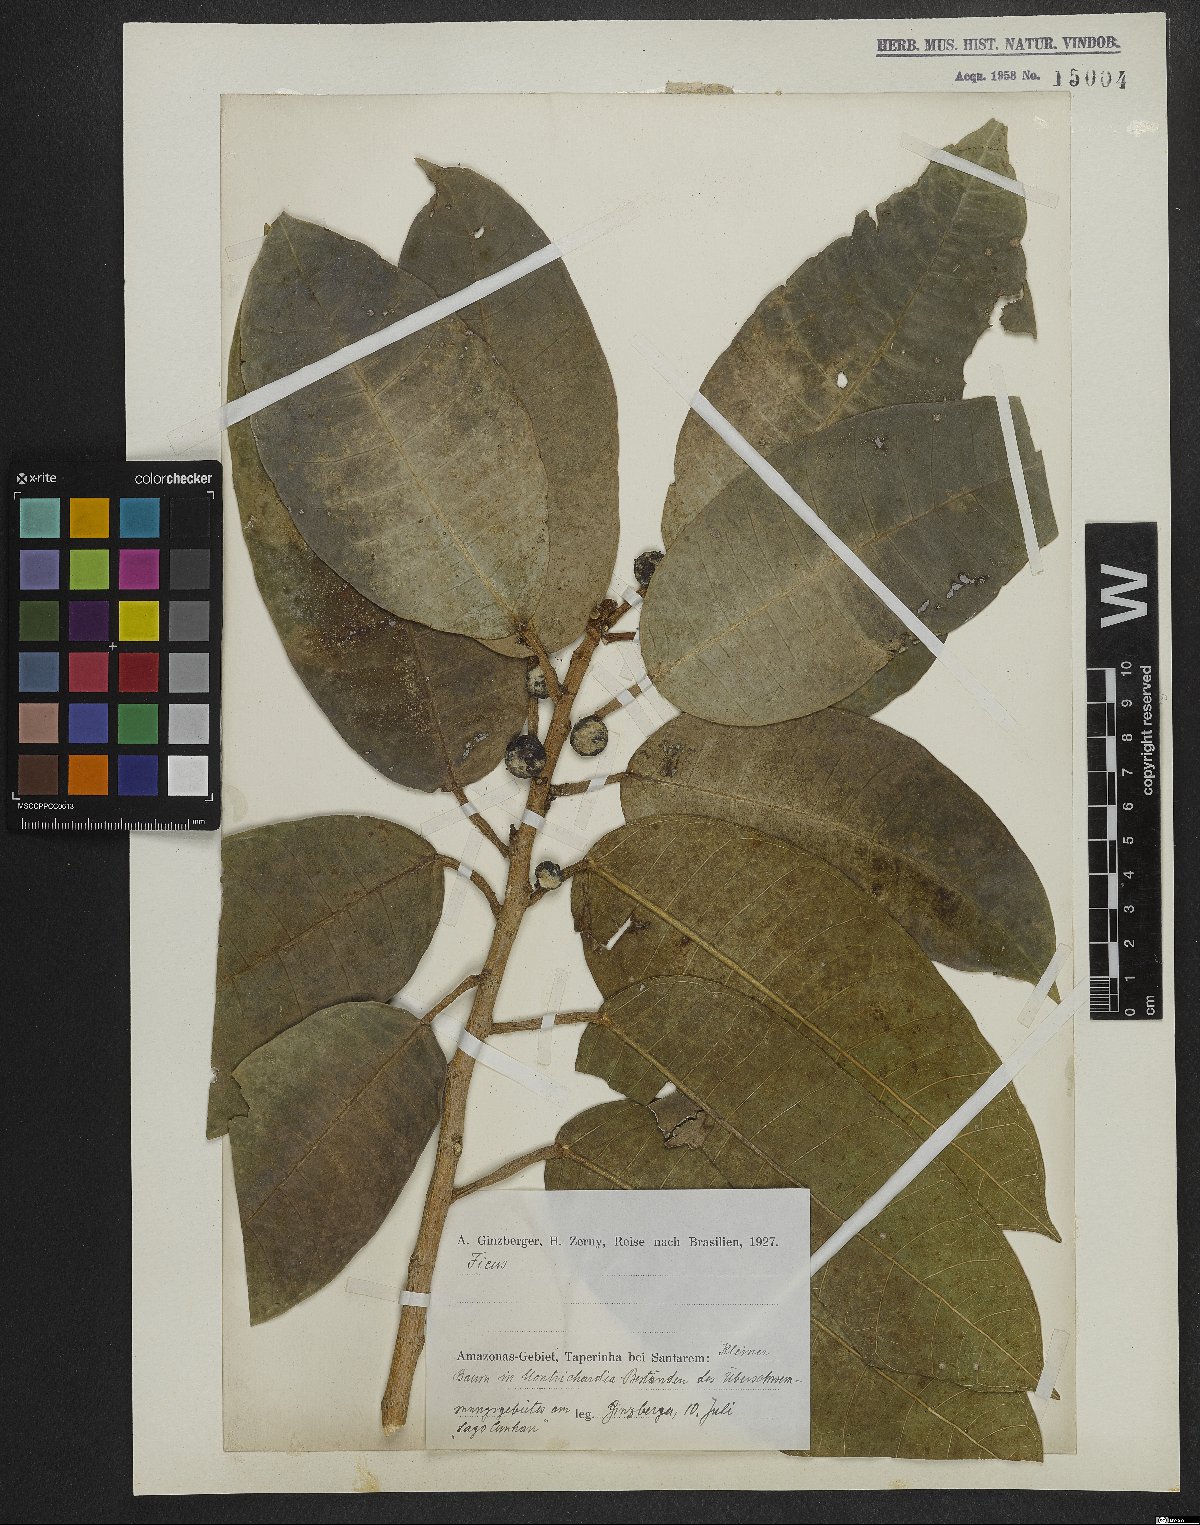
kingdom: Plantae
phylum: Tracheophyta
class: Magnoliopsida
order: Rosales
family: Moraceae
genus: Ficus
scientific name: Ficus
